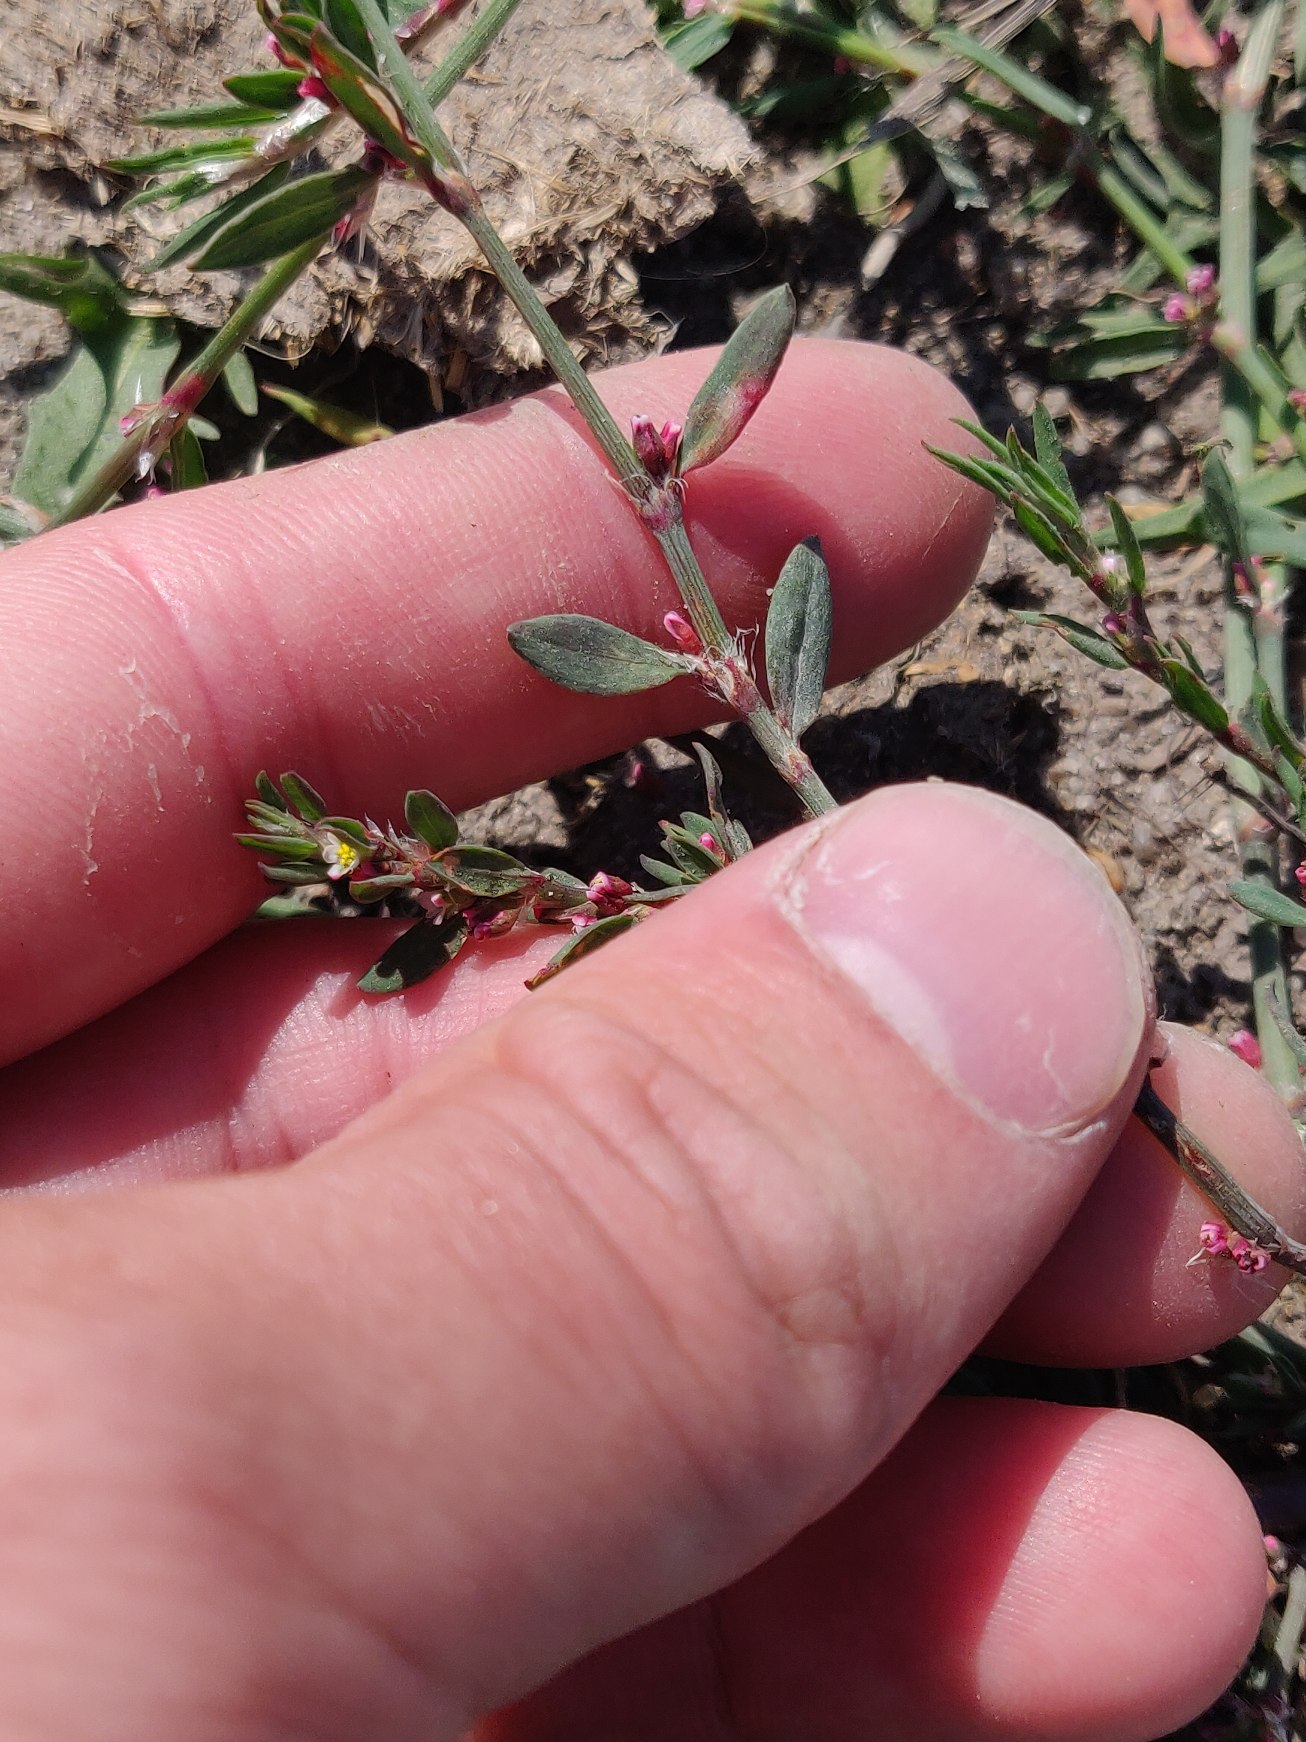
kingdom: Plantae
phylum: Tracheophyta
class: Magnoliopsida
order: Caryophyllales
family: Polygonaceae
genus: Polygonum
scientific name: Polygonum aviculare
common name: Vej-pileurt
